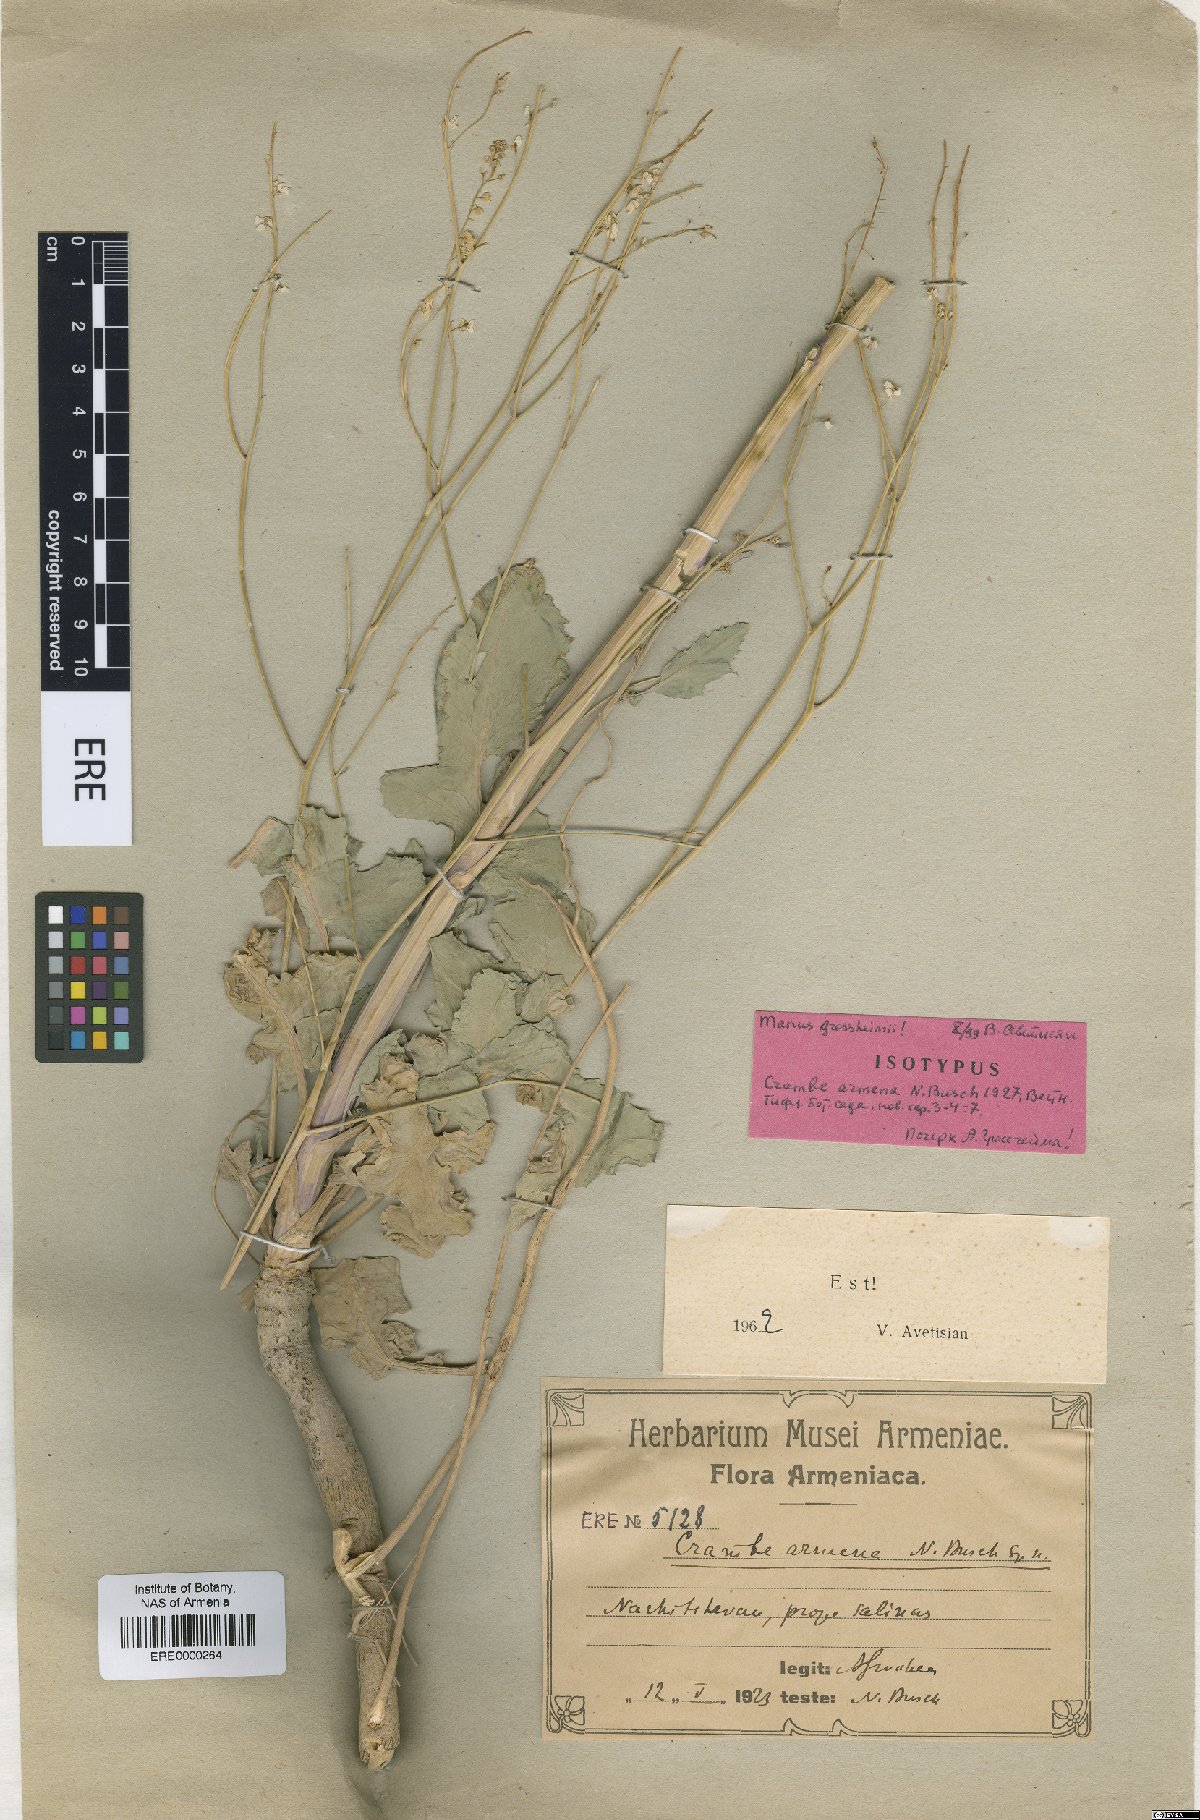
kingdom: Plantae
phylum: Tracheophyta
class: Magnoliopsida
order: Brassicales
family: Brassicaceae
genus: Crambe
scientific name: Crambe armena
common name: Armenian sea-kale
